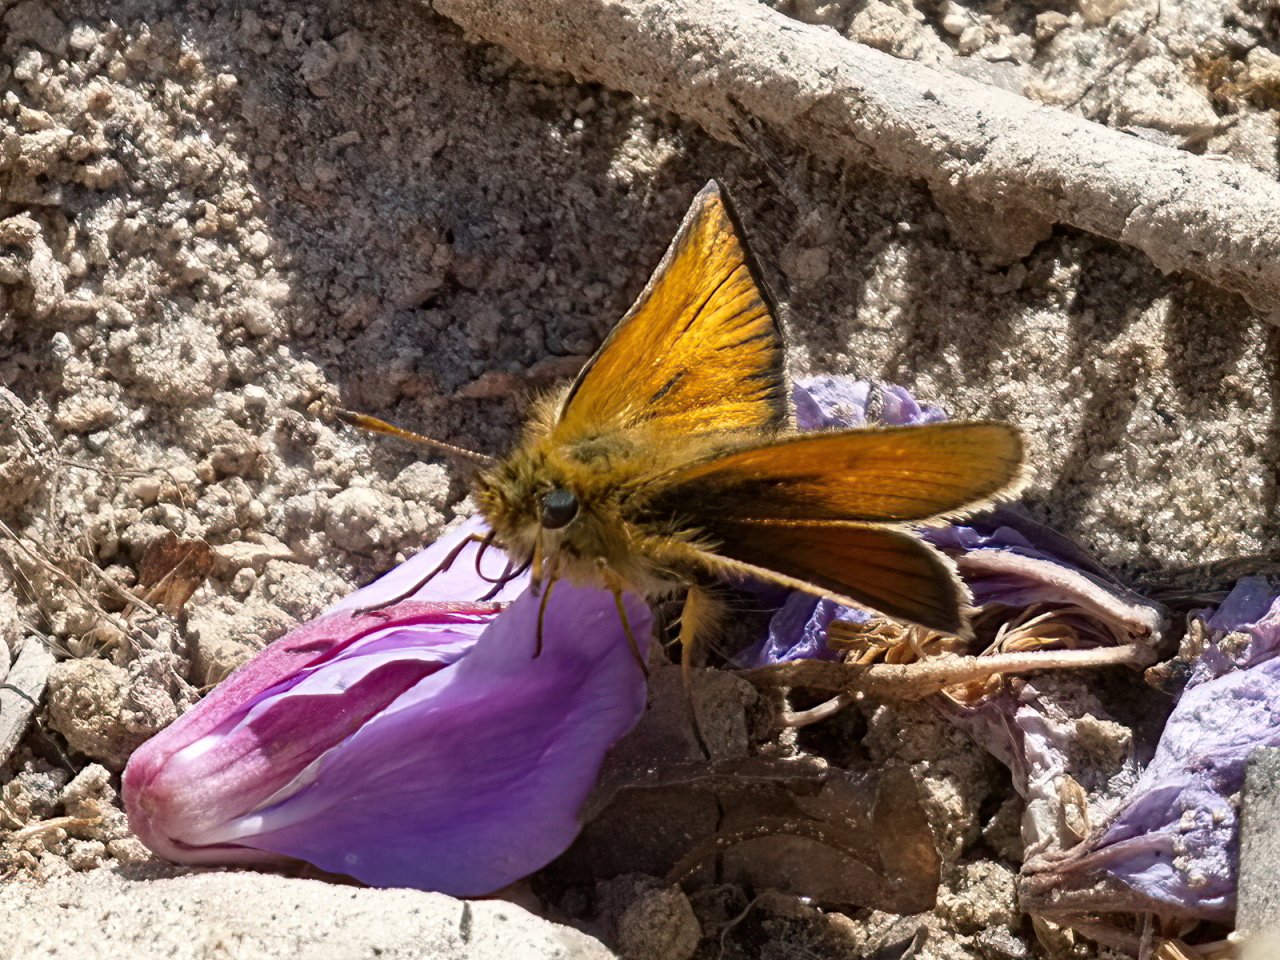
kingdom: Animalia
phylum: Arthropoda
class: Insecta
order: Lepidoptera
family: Hesperiidae
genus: Thymelicus
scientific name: Thymelicus lineola
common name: European Skipper
